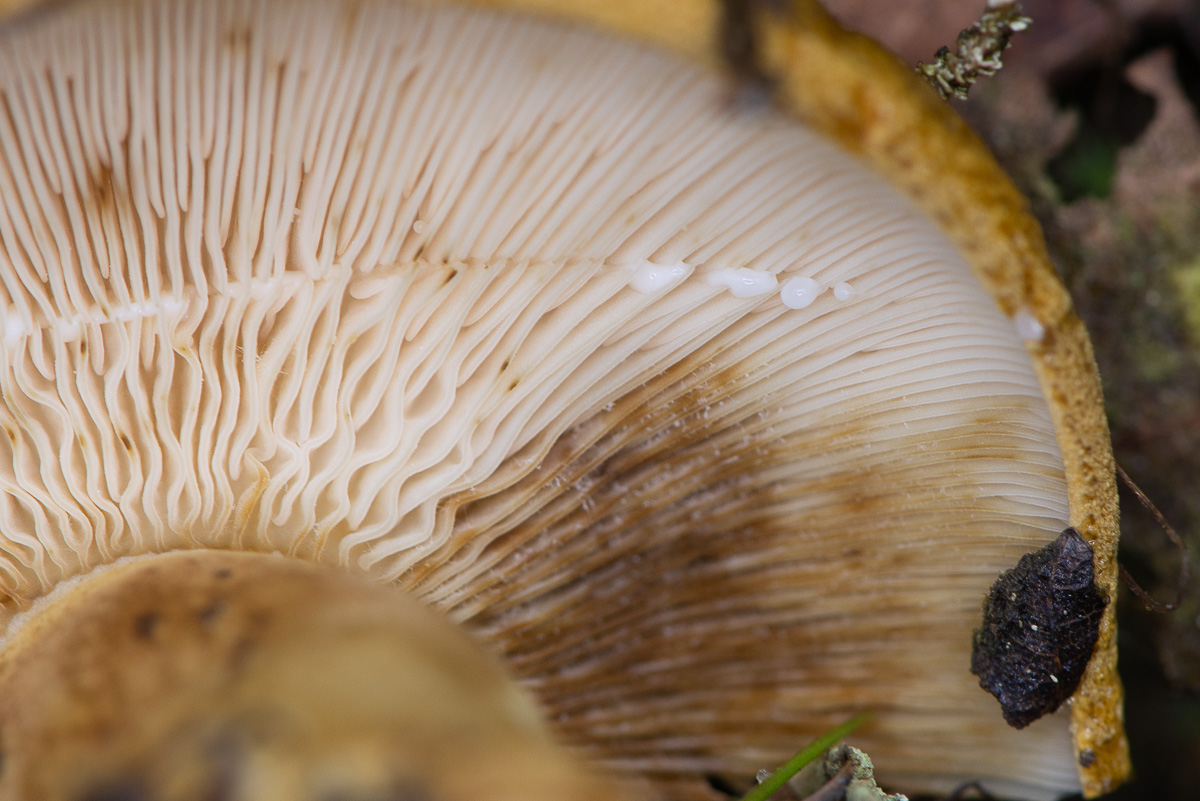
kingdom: Fungi
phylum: Basidiomycota
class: Agaricomycetes
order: Russulales
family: Russulaceae
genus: Lactarius
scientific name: Lactarius necator
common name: manddraber-mælkehat
